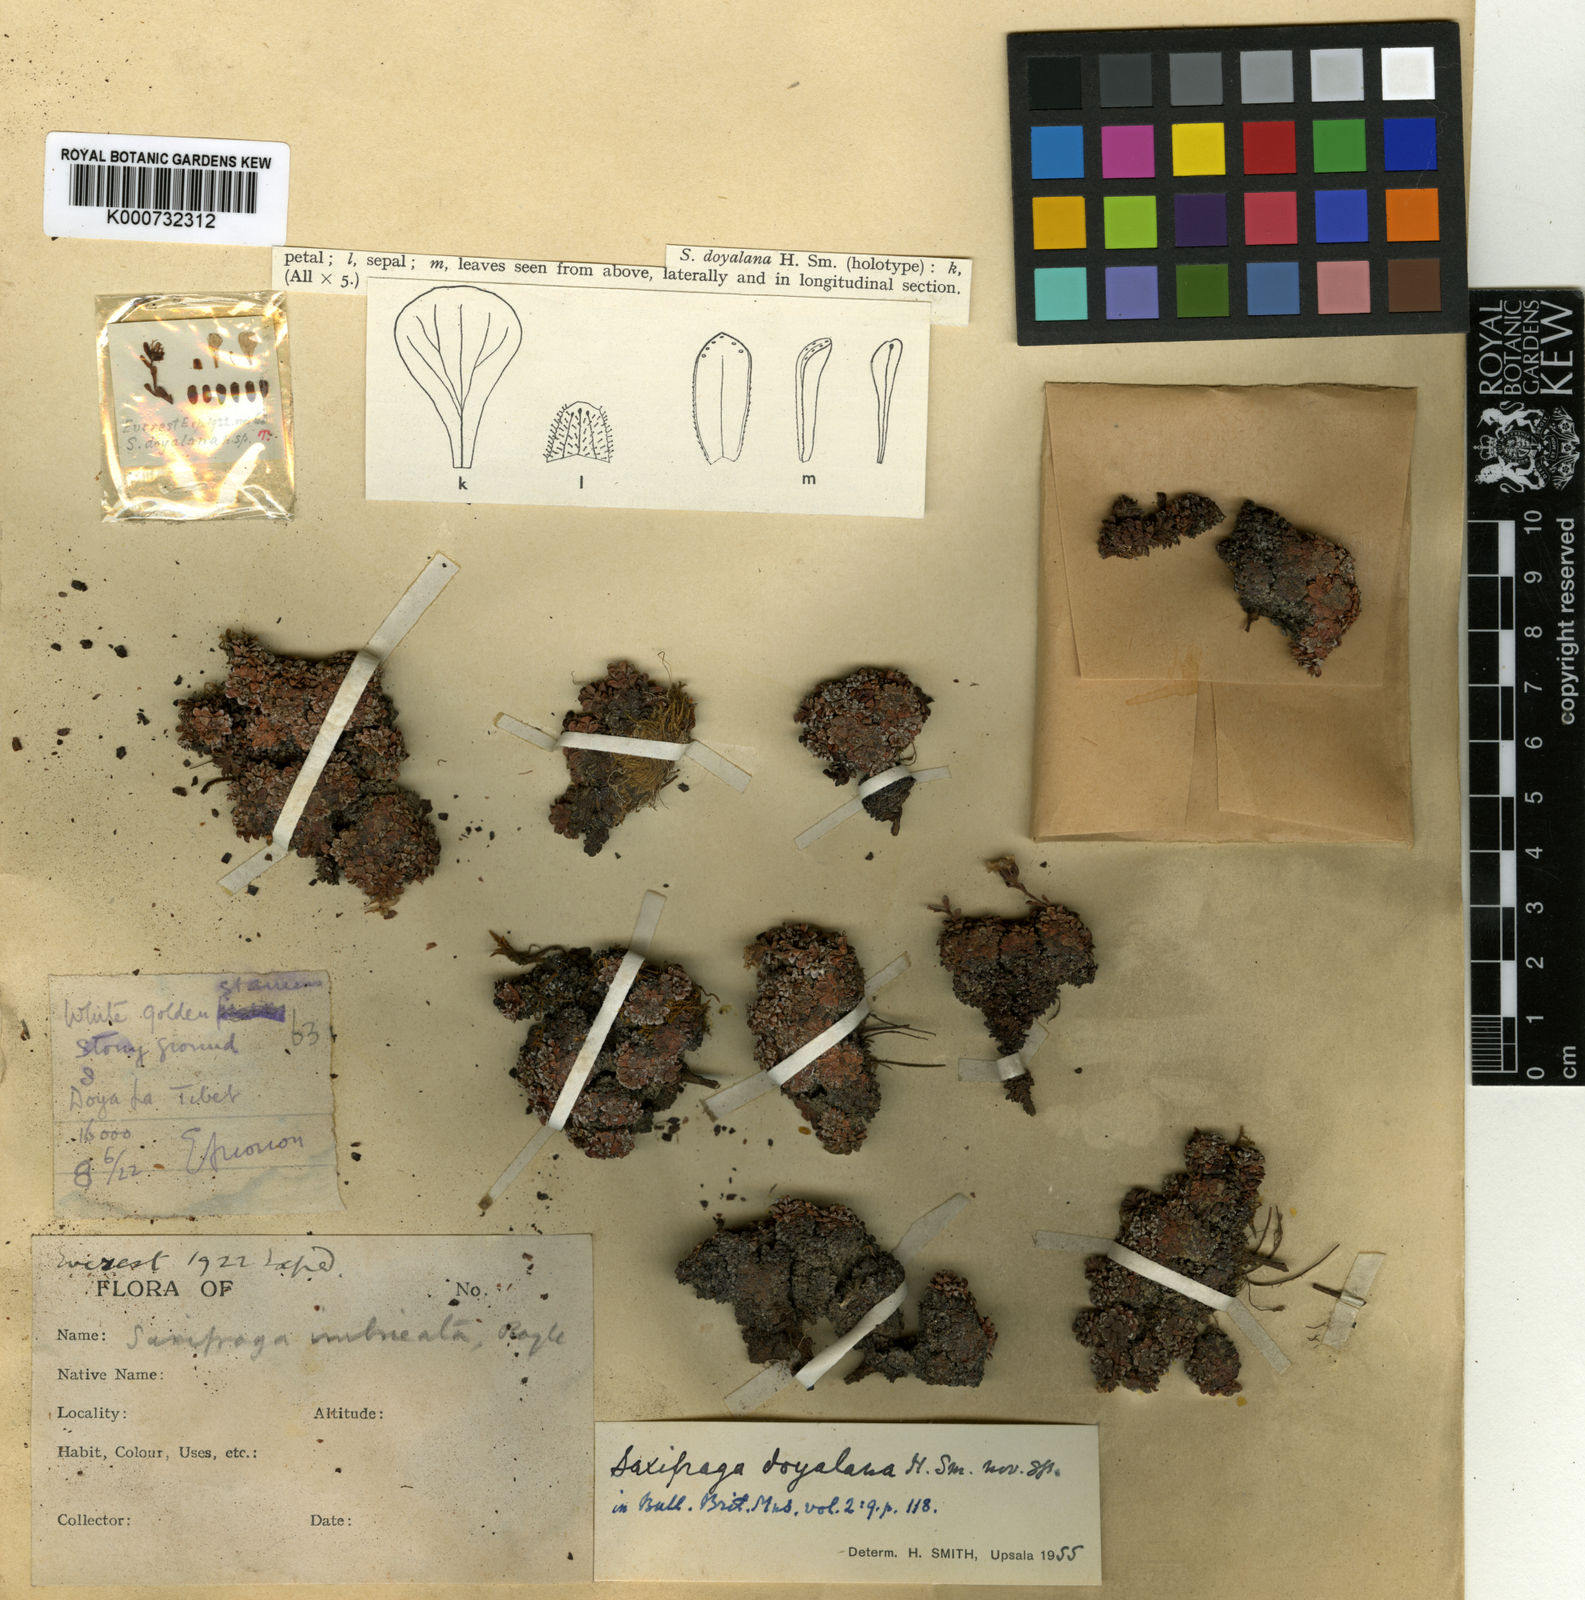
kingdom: Plantae
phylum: Tracheophyta
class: Magnoliopsida
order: Saxifragales
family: Saxifragaceae
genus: Saxifraga
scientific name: Saxifraga doyalana
